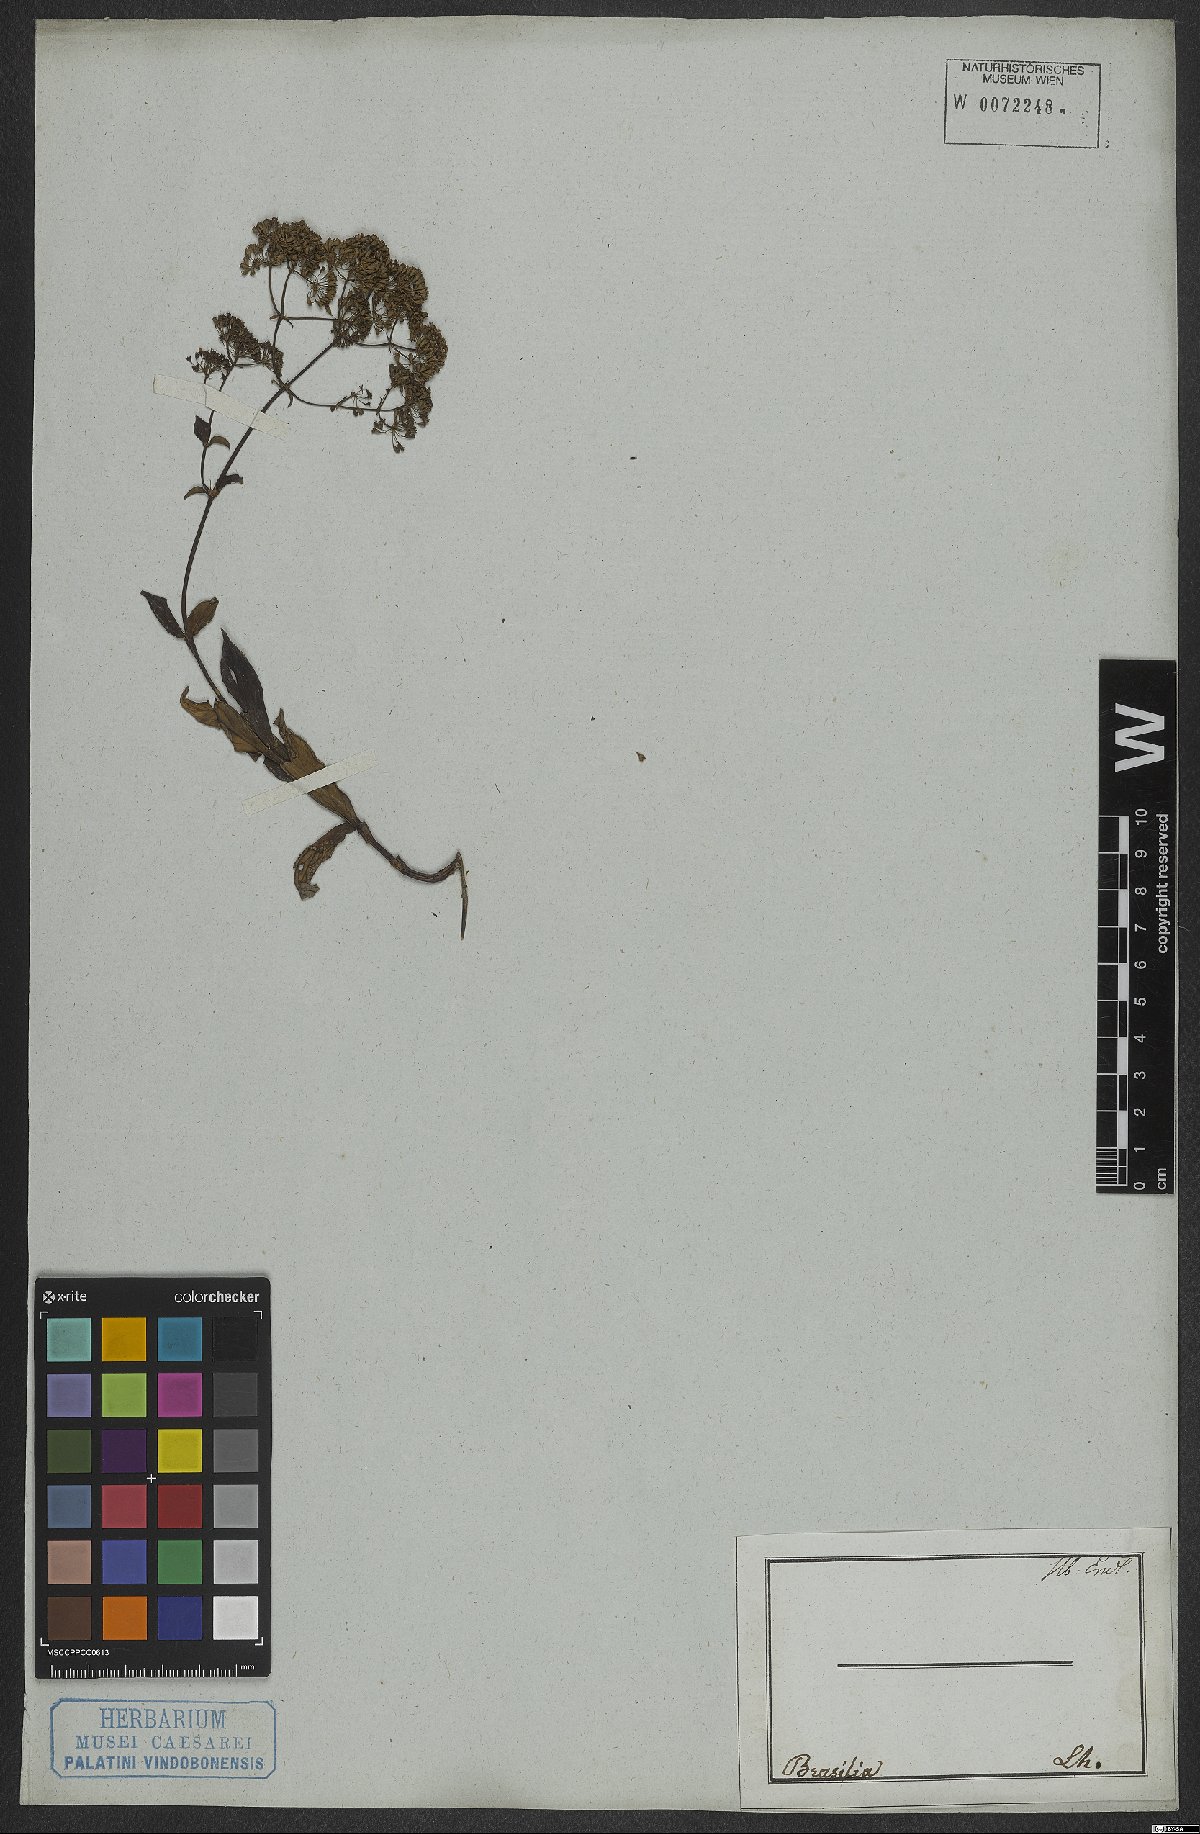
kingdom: Plantae
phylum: Tracheophyta
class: Magnoliopsida
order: Gentianales
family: Rubiaceae
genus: Emmeorhiza
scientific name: Emmeorhiza
